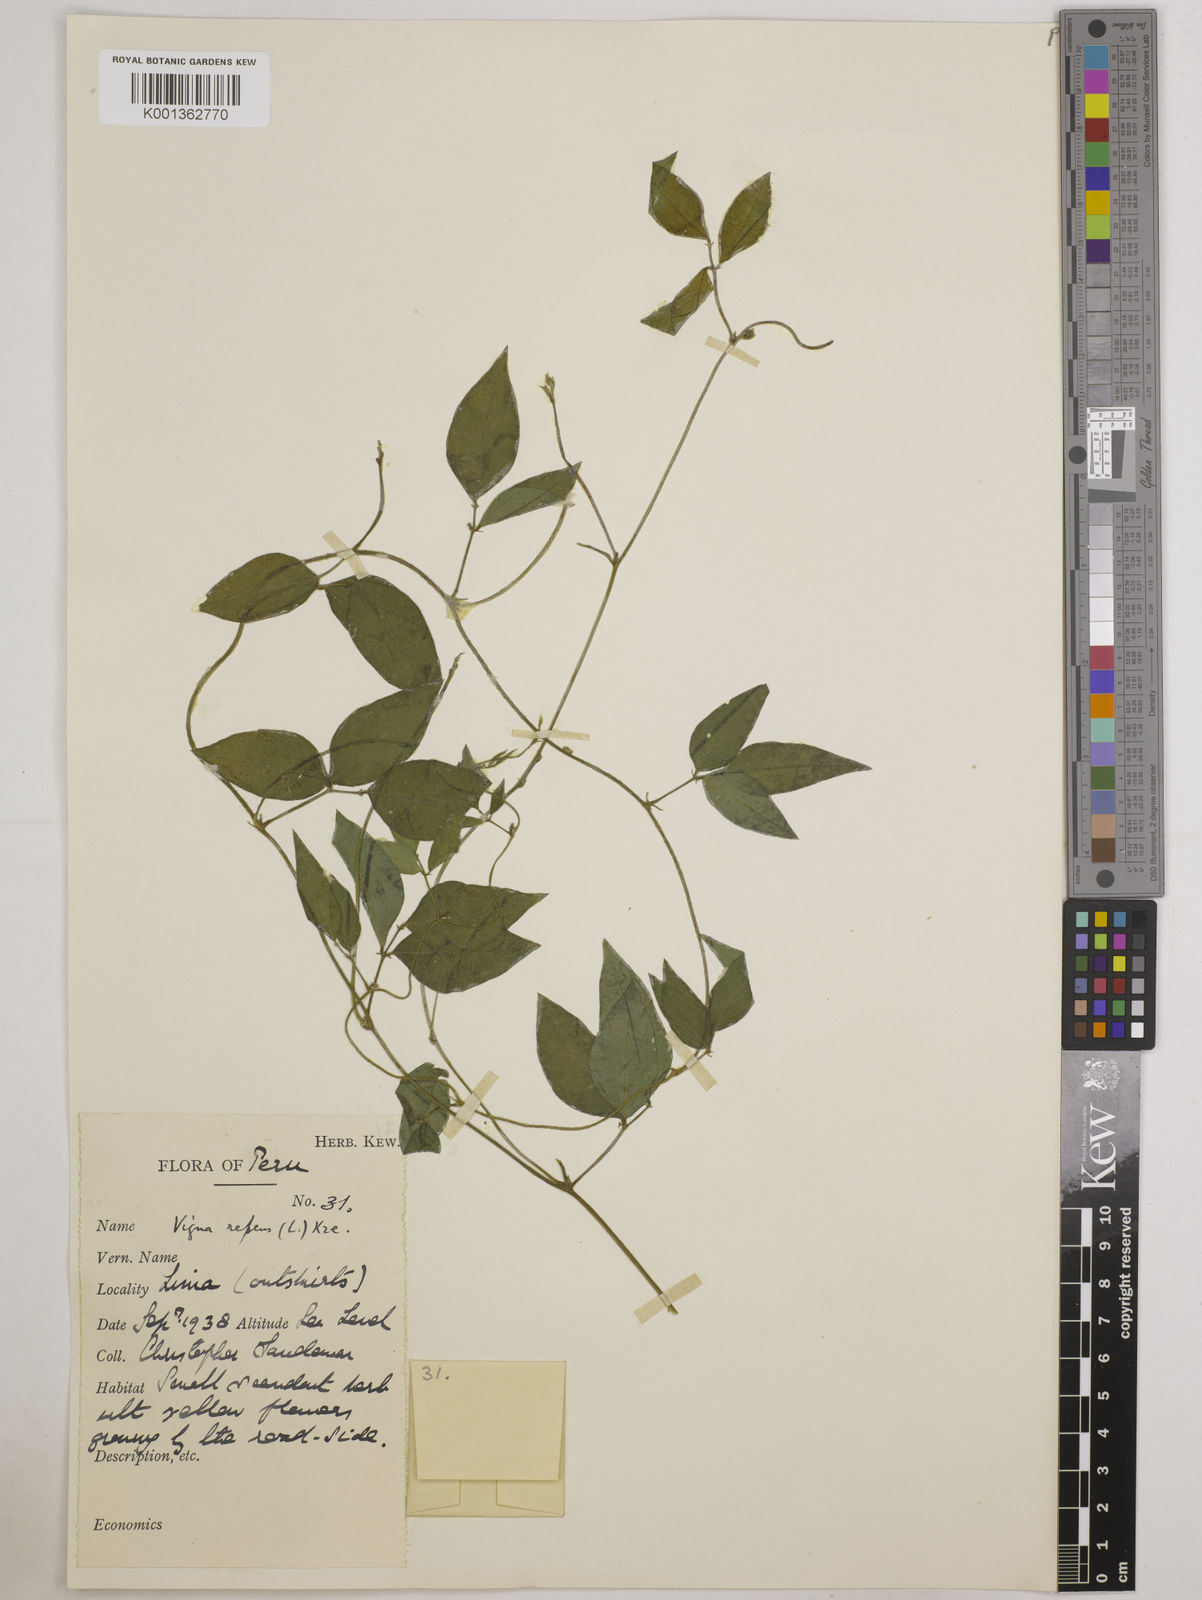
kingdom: Plantae
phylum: Tracheophyta
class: Magnoliopsida
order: Fabales
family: Fabaceae
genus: Vigna
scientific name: Vigna luteola
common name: Hairypod cowpea
